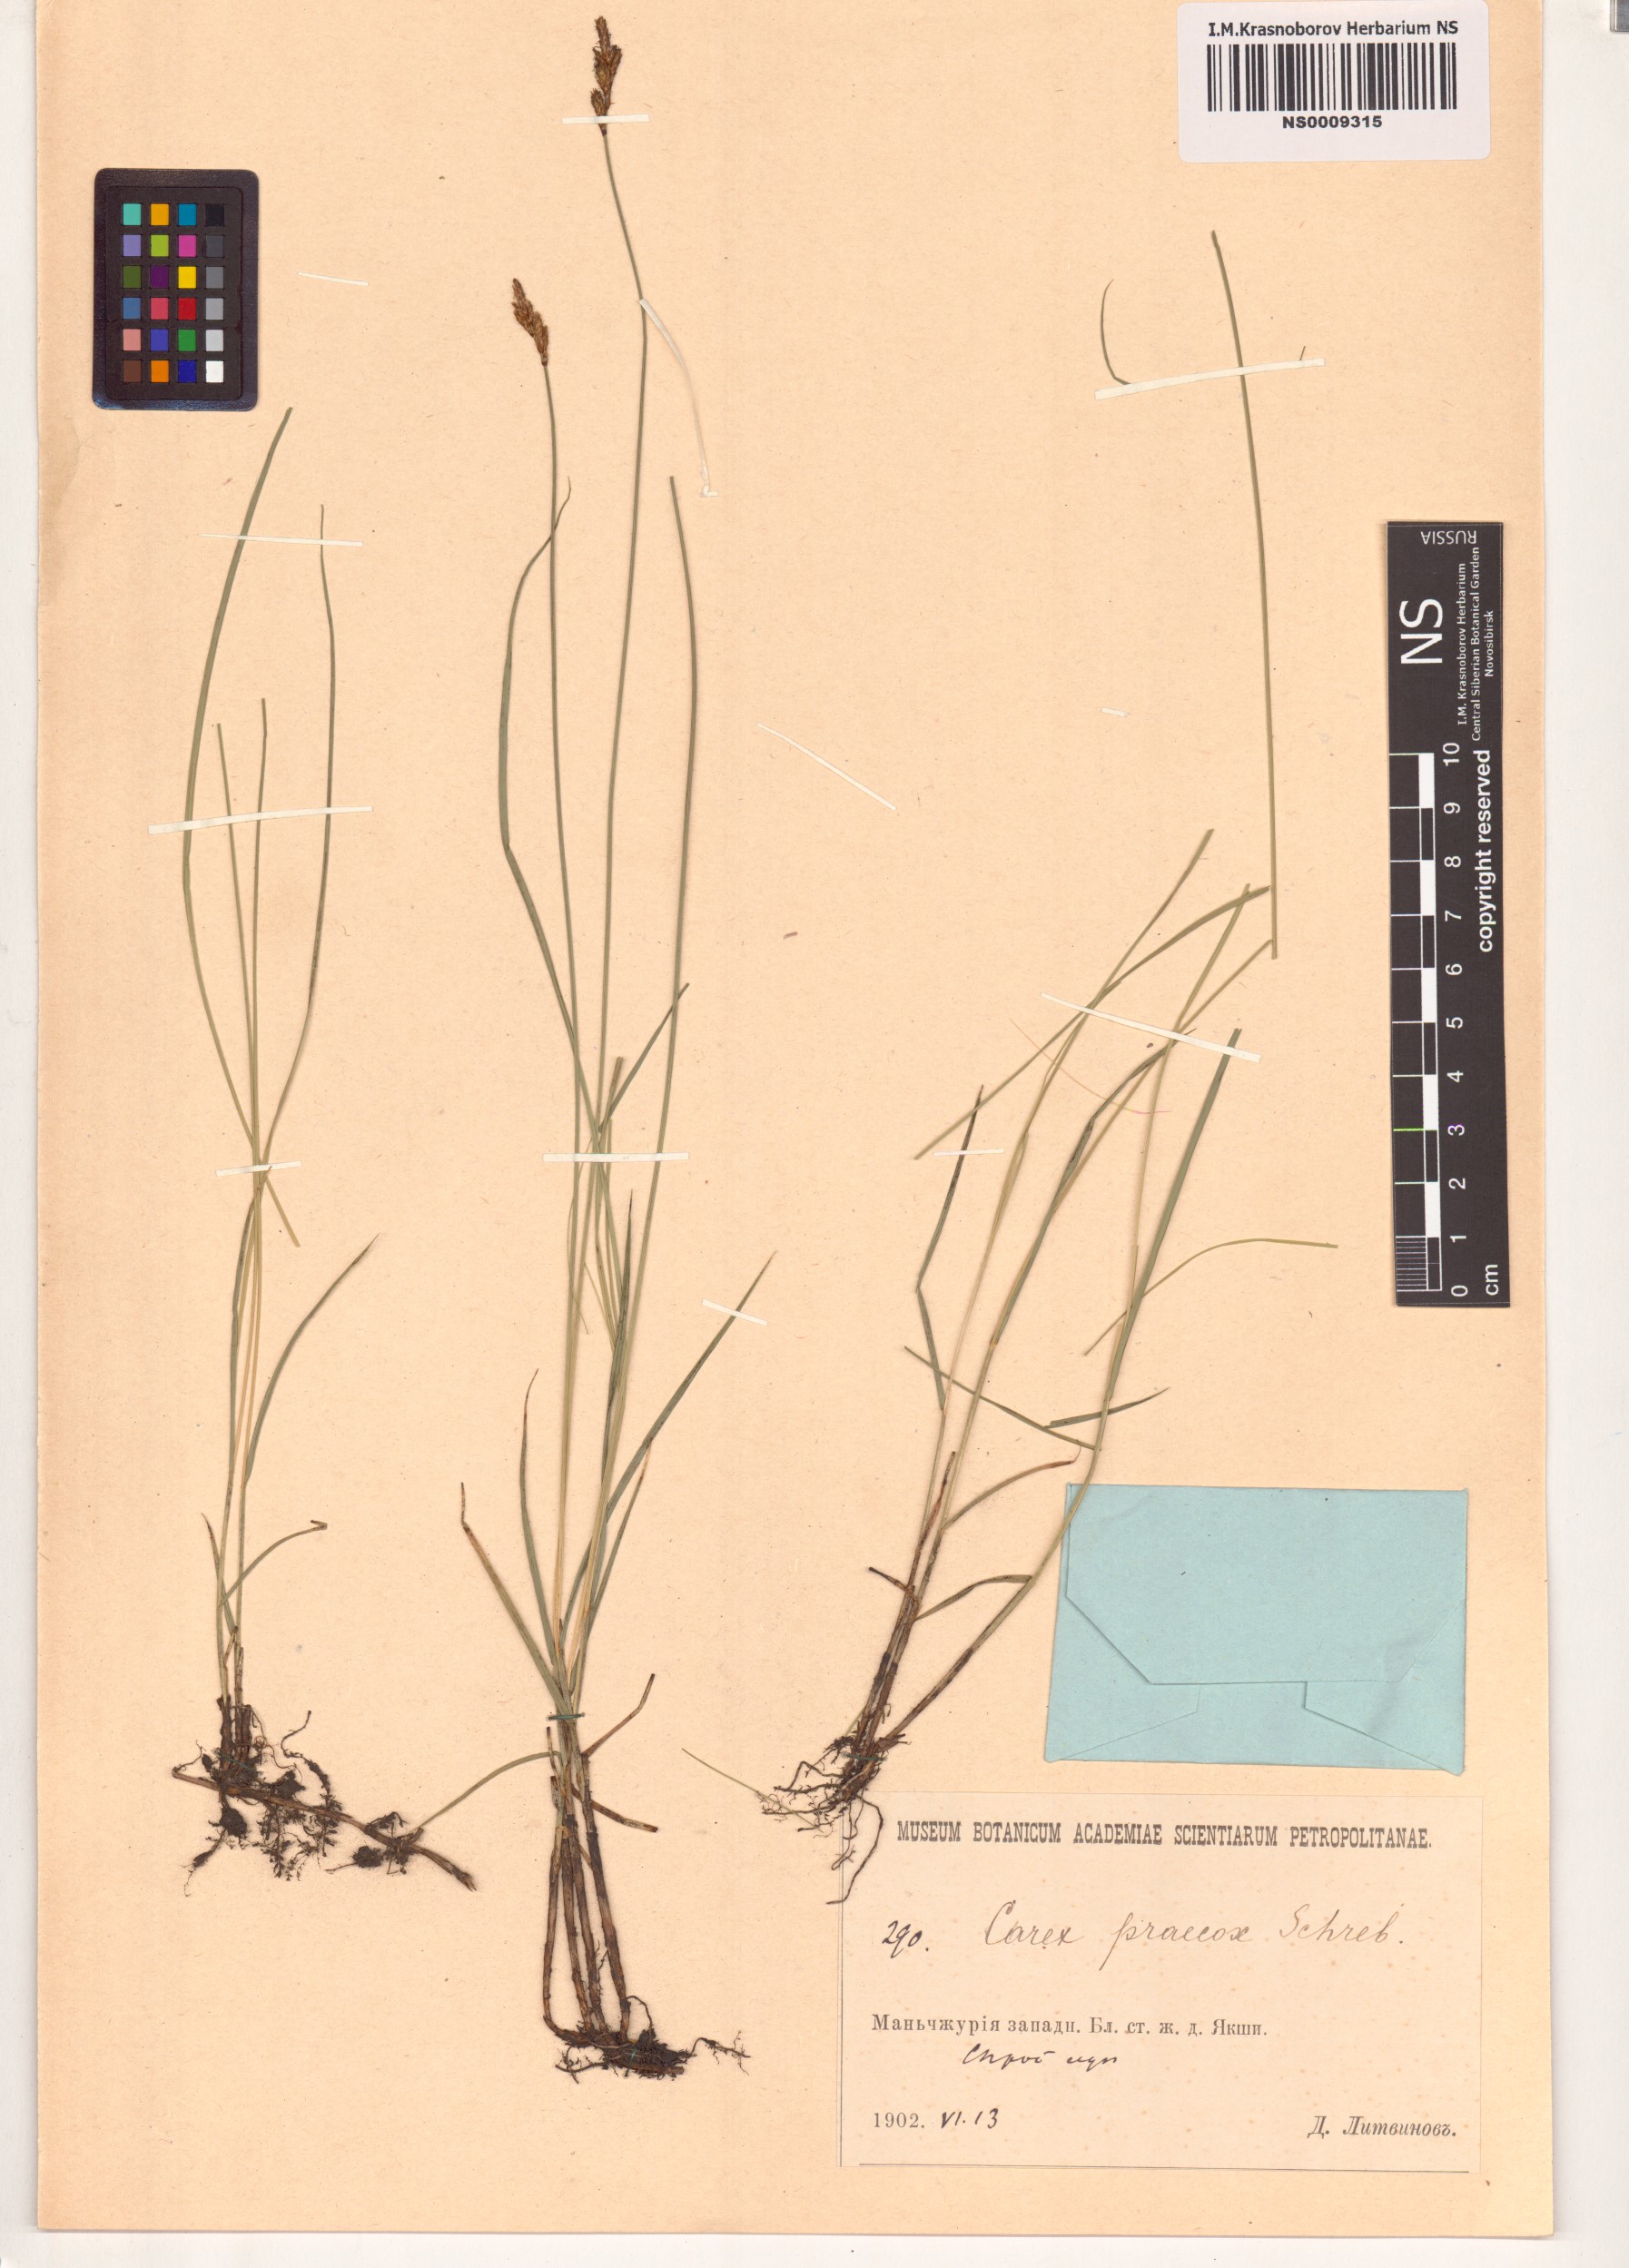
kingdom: Plantae
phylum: Tracheophyta
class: Liliopsida
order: Poales
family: Cyperaceae
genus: Carex
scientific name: Carex praecox
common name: Early sedge
